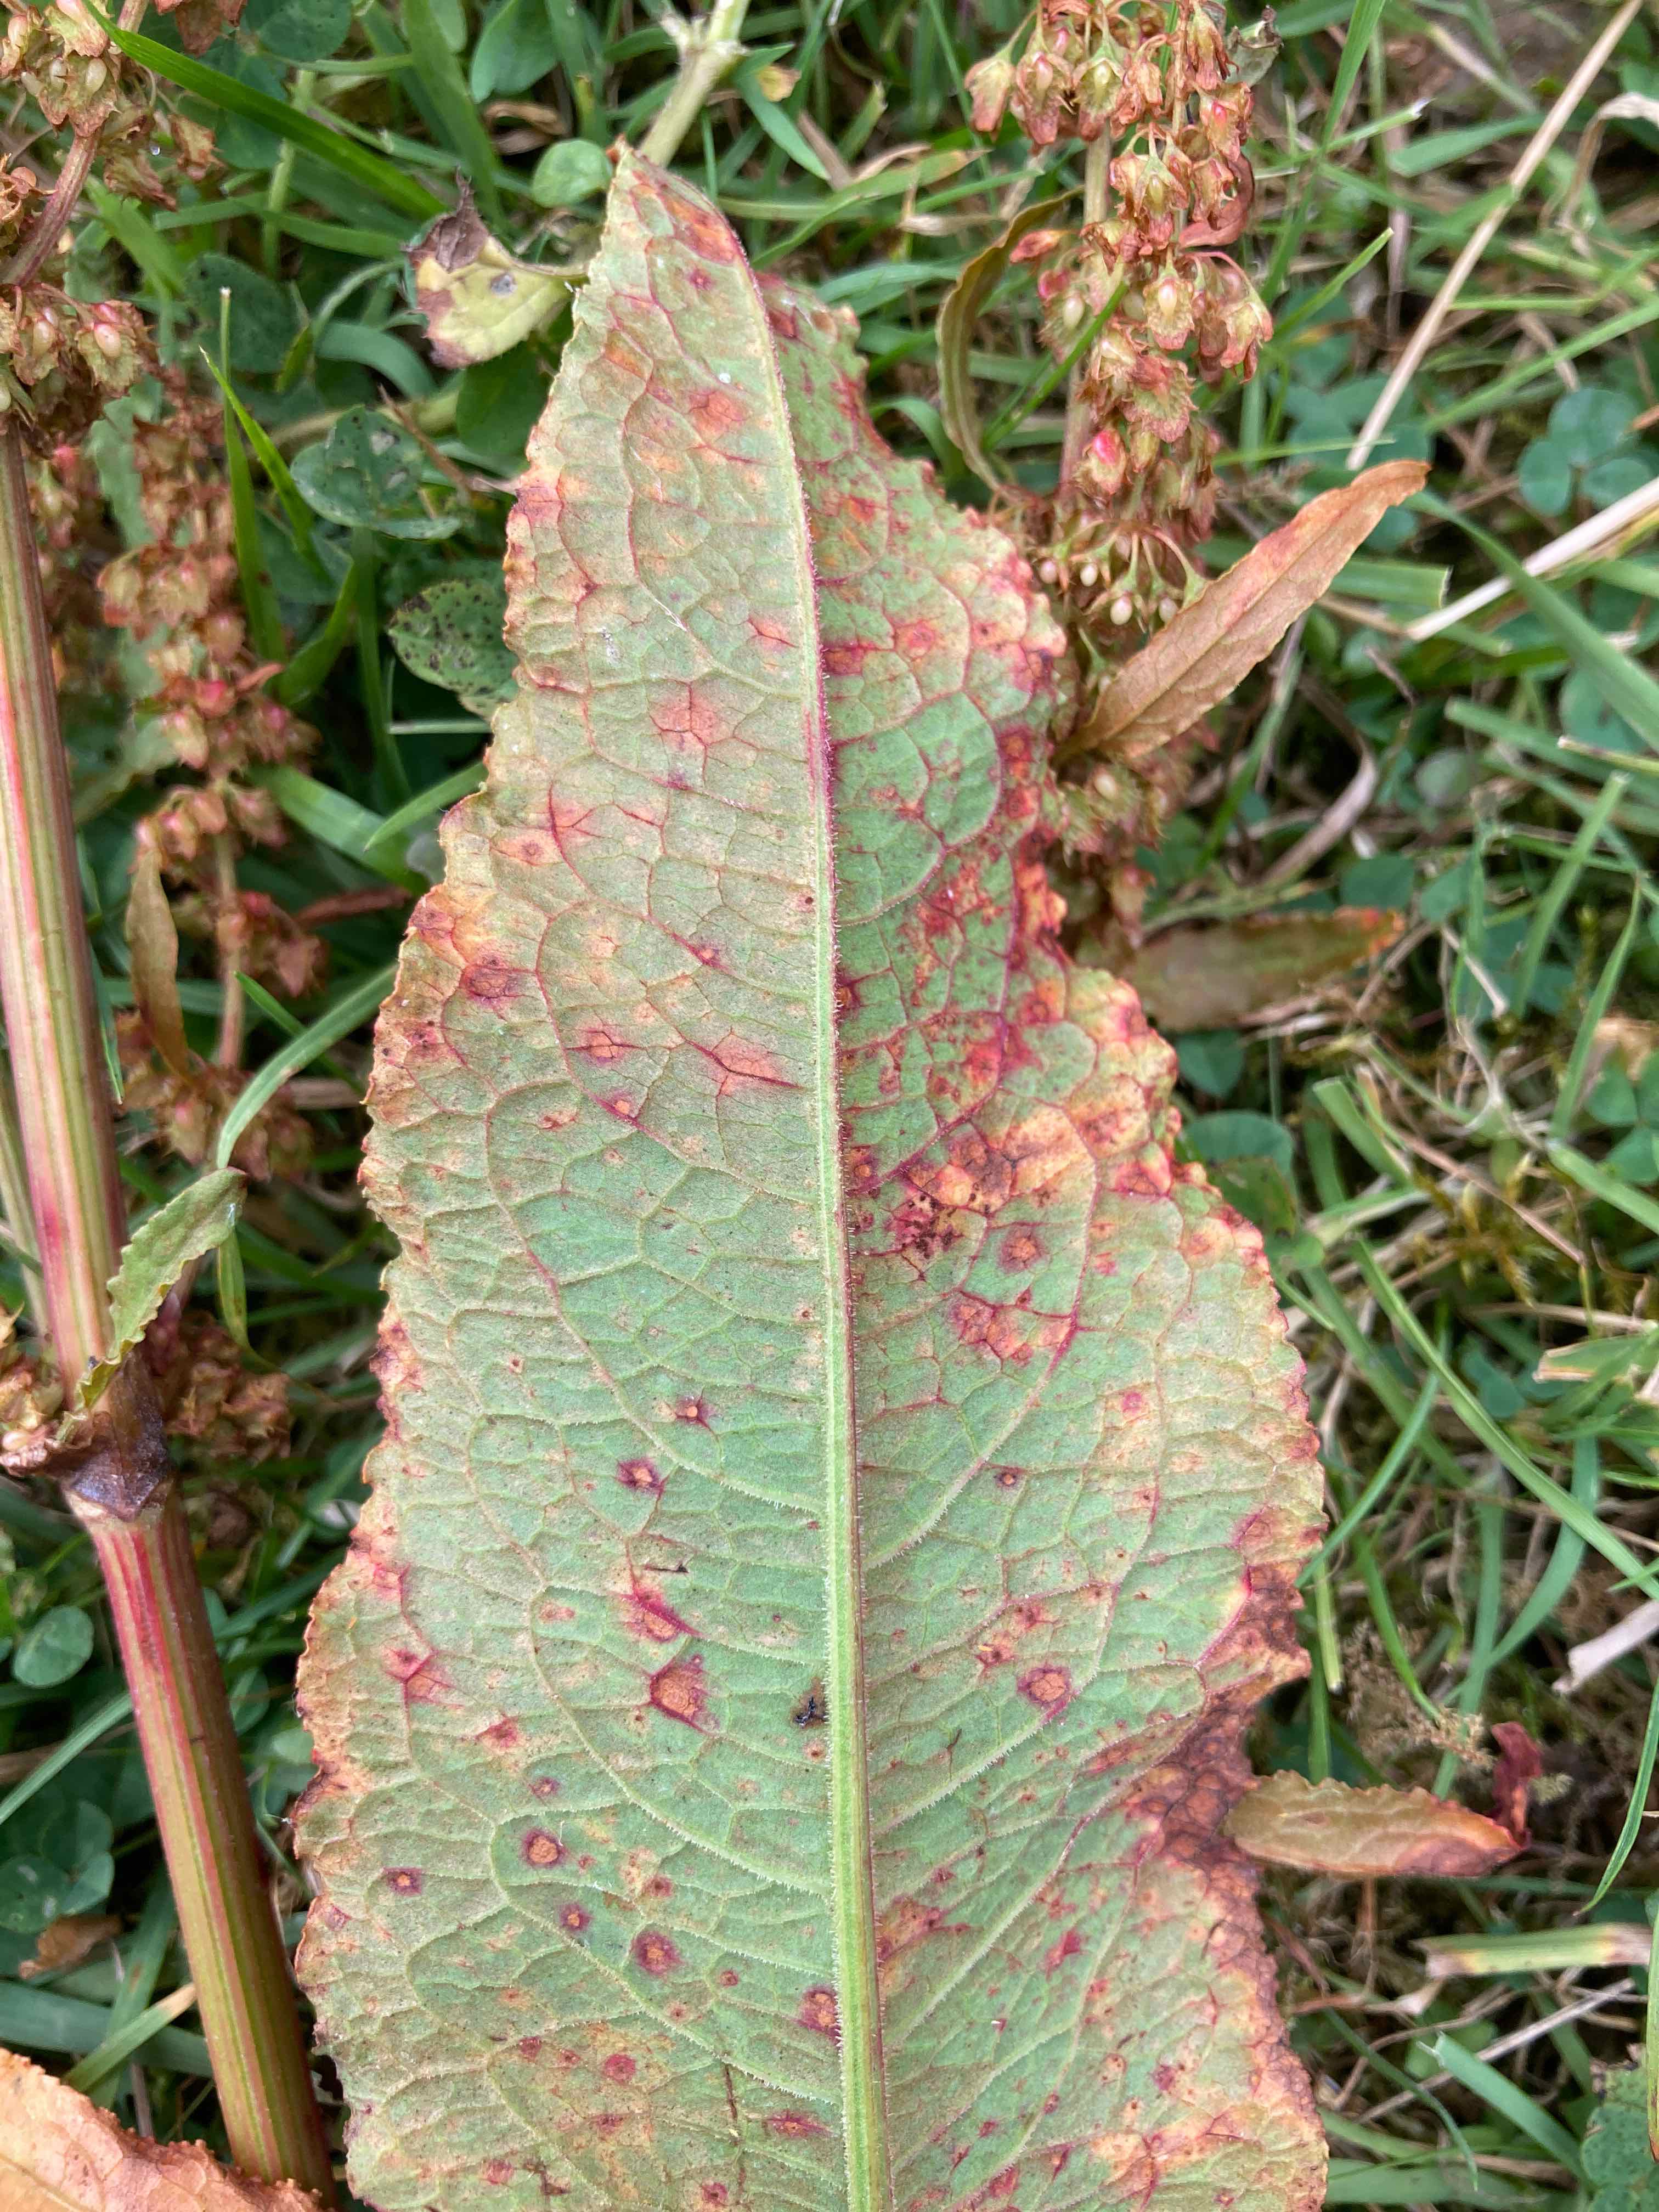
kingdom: Fungi
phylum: Basidiomycota
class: Pucciniomycetes
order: Pucciniales
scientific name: Pucciniales
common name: rustsvampeordenen
